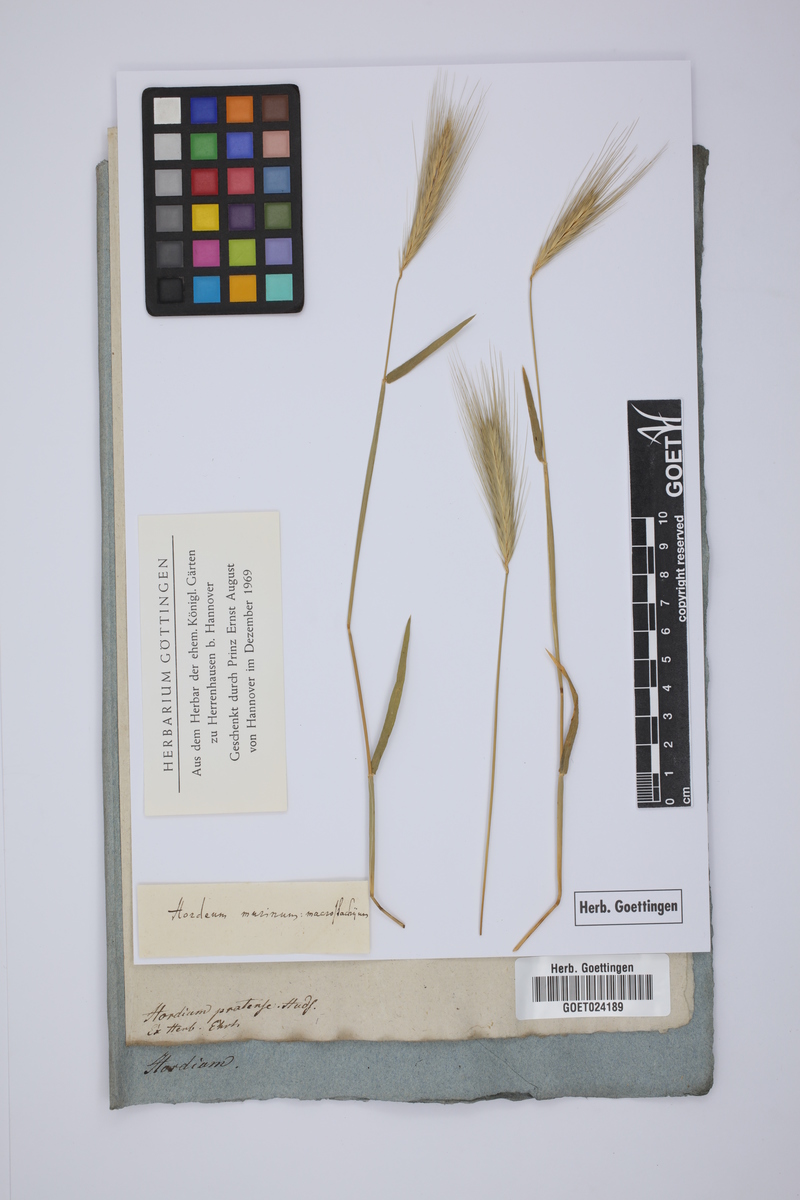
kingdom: Plantae
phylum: Tracheophyta
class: Liliopsida
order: Poales
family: Poaceae
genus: Hordeum
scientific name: Hordeum secalinum
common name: Meadow barley
